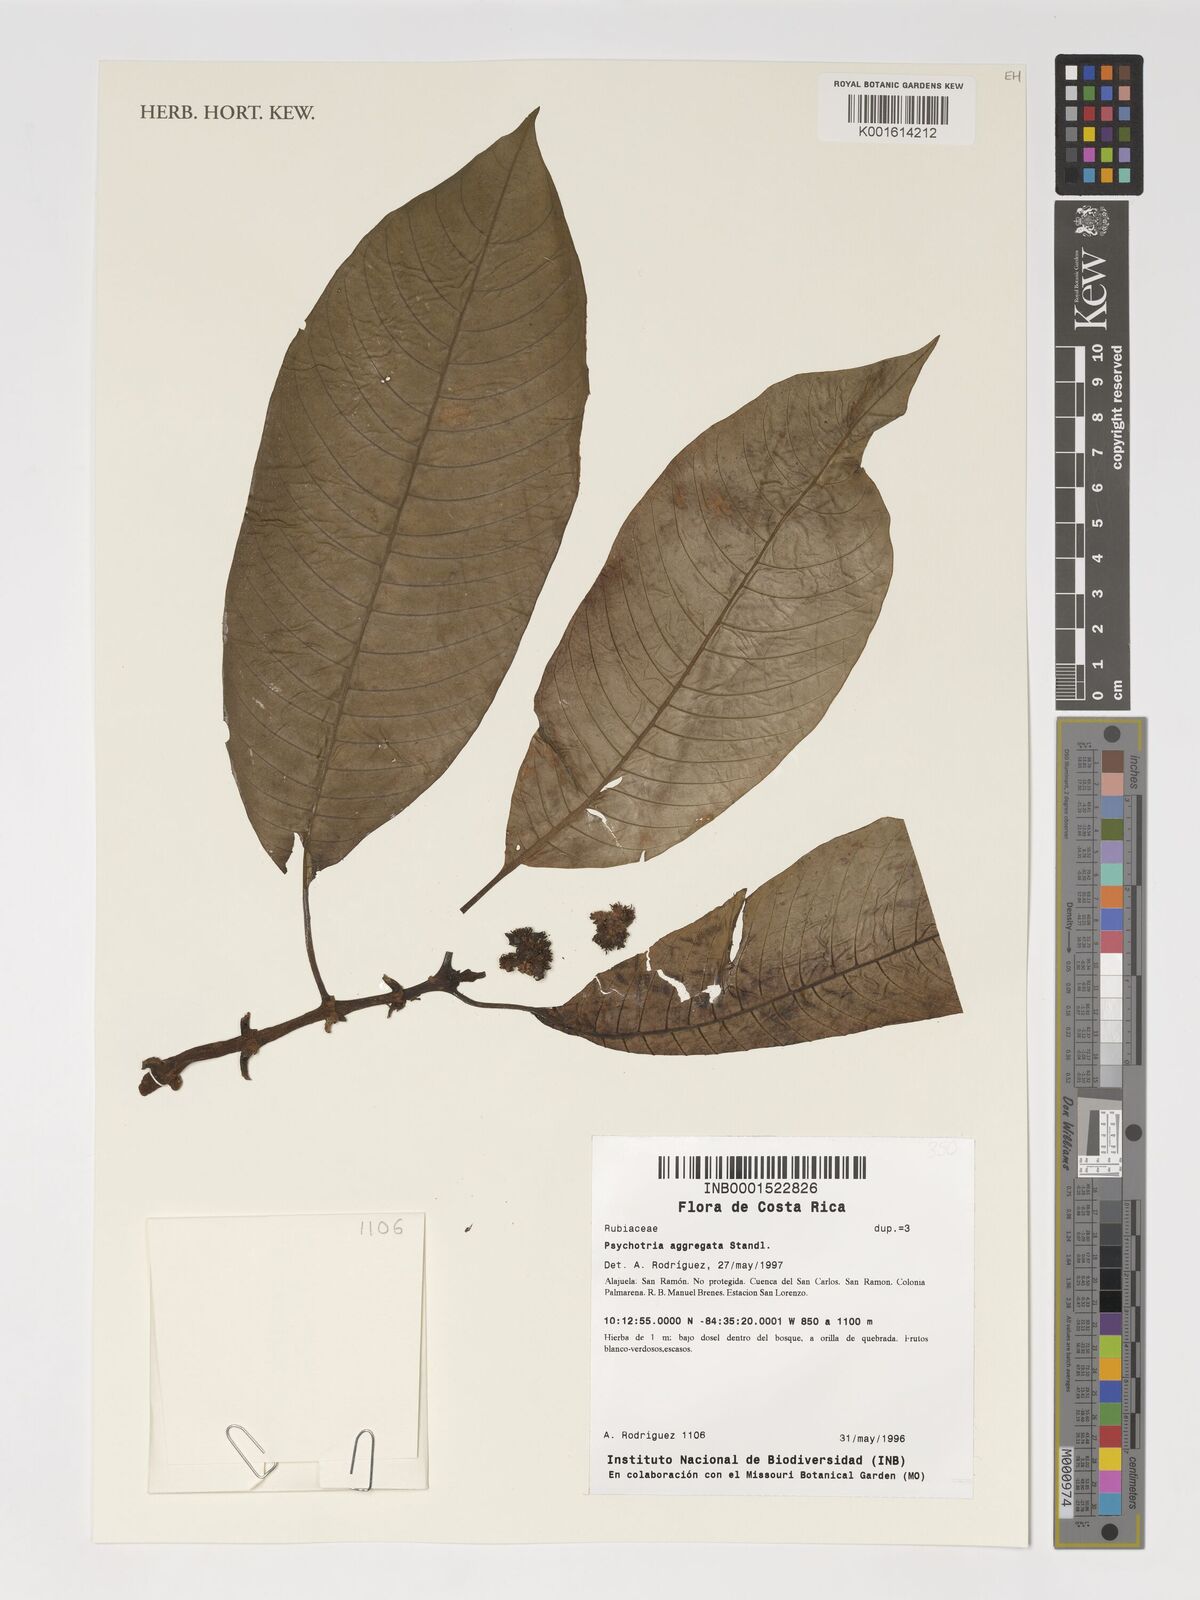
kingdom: Plantae
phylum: Tracheophyta
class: Magnoliopsida
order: Gentianales
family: Rubiaceae
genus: Notopleura
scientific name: Notopleura aggregata
